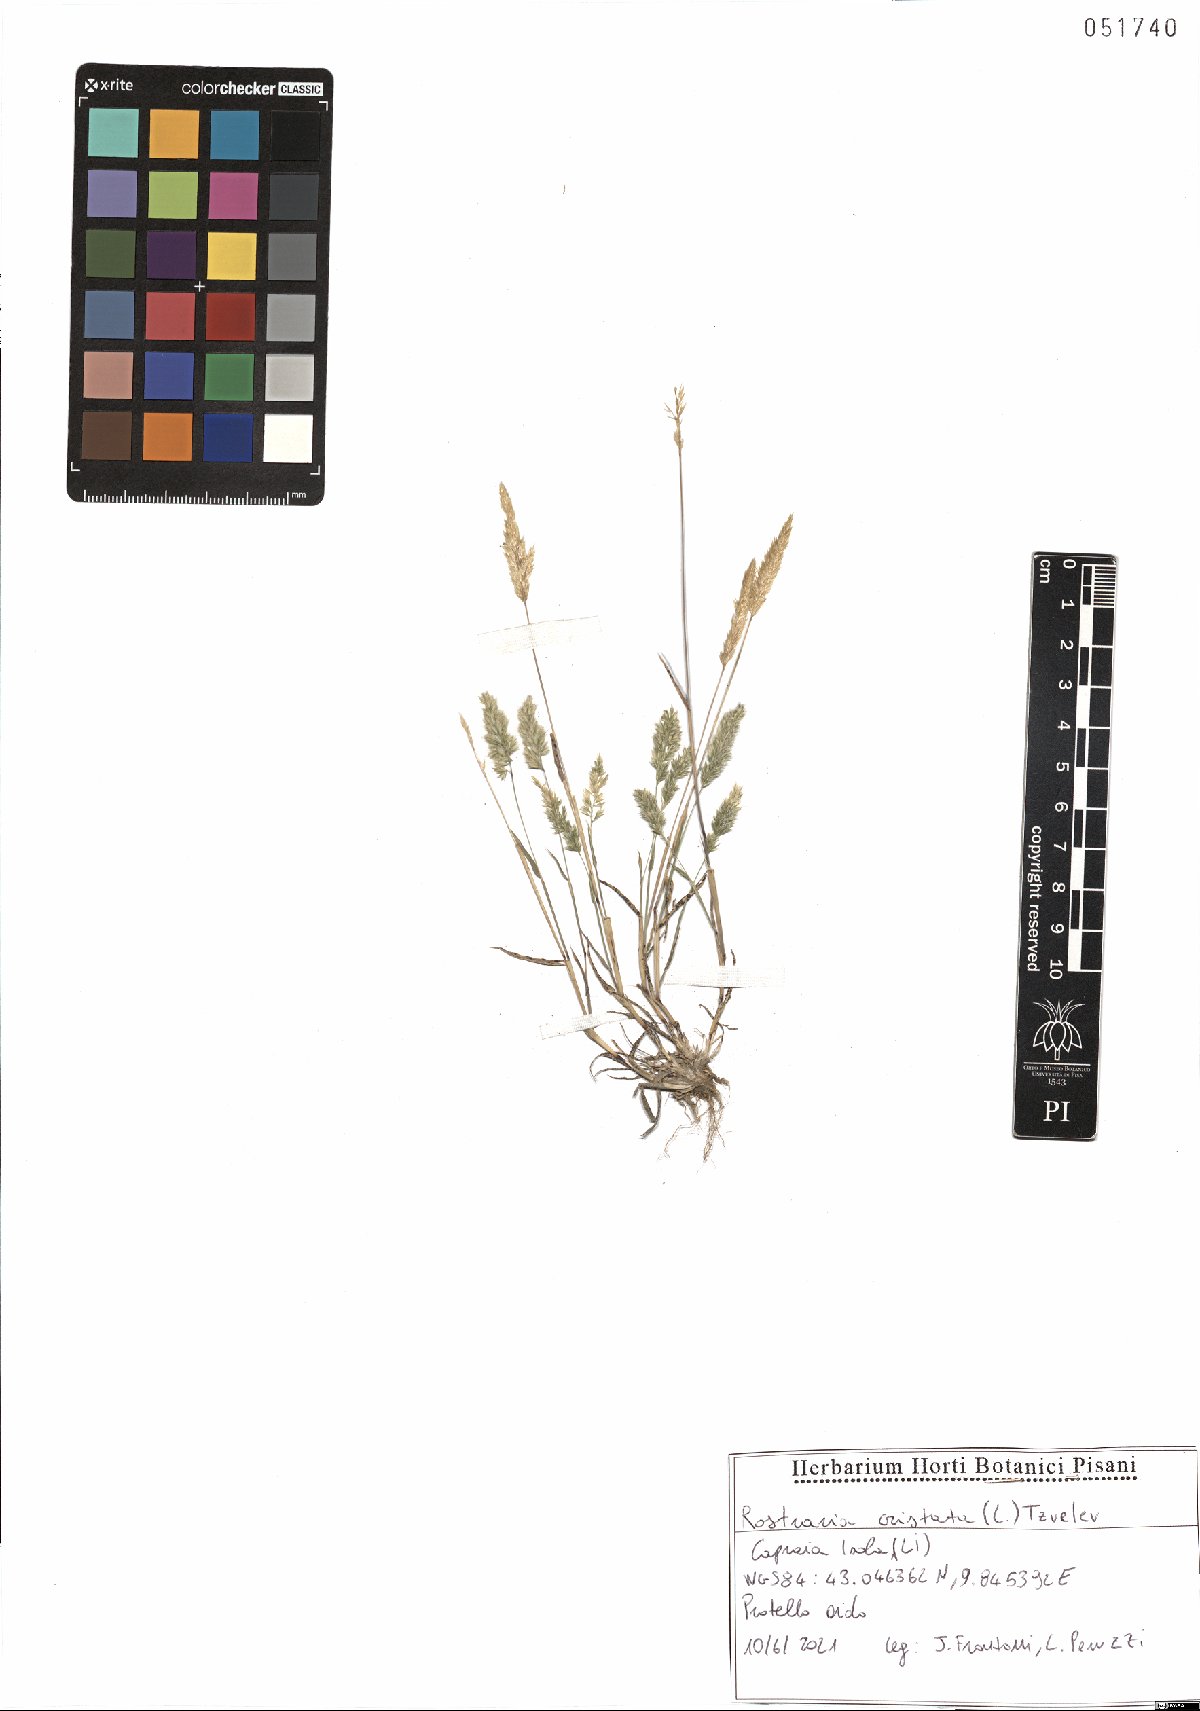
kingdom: Plantae
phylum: Tracheophyta
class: Liliopsida
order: Poales
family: Poaceae
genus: Rostraria
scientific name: Rostraria cristata
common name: Mediterranean hair-grass
